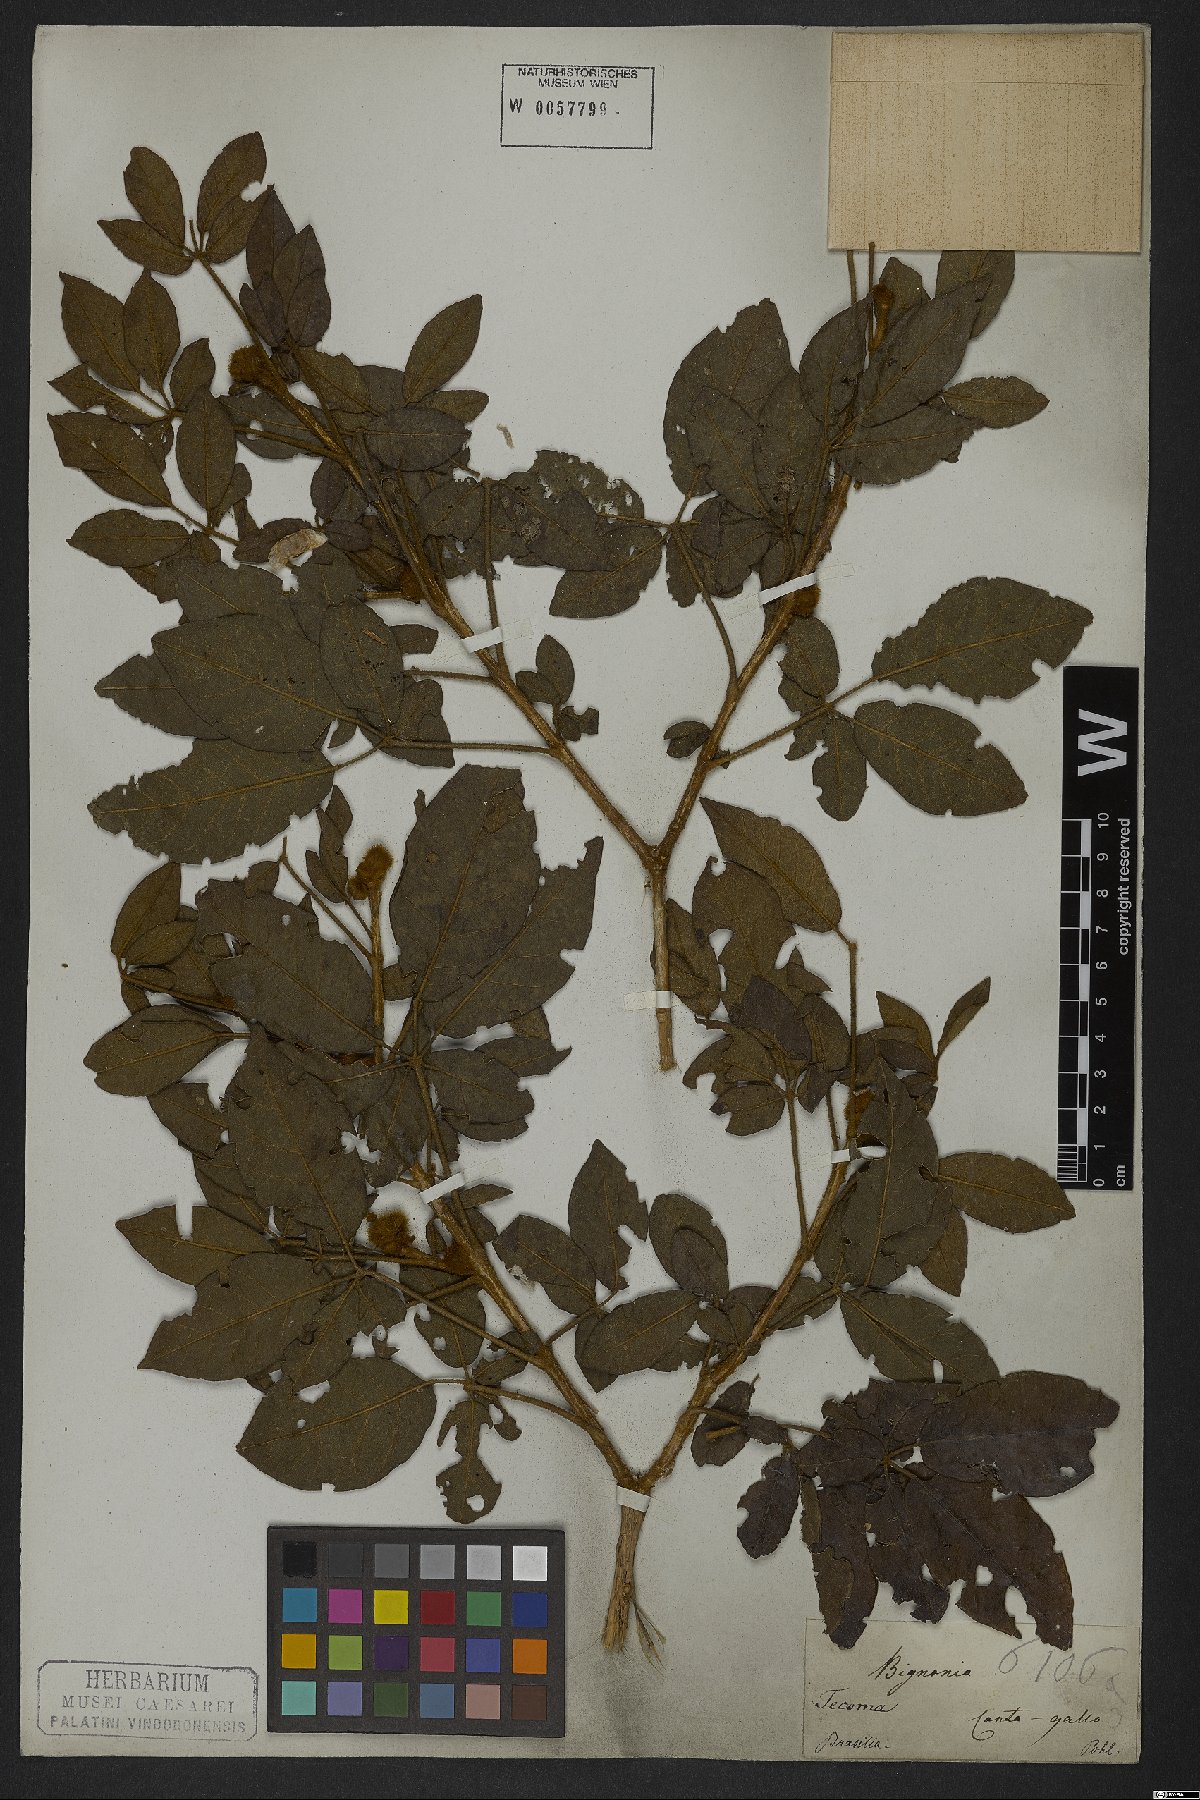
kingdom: Plantae
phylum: Tracheophyta
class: Magnoliopsida
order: Lamiales
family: Bignoniaceae
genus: Handroanthus
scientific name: Handroanthus chrysotrichus
